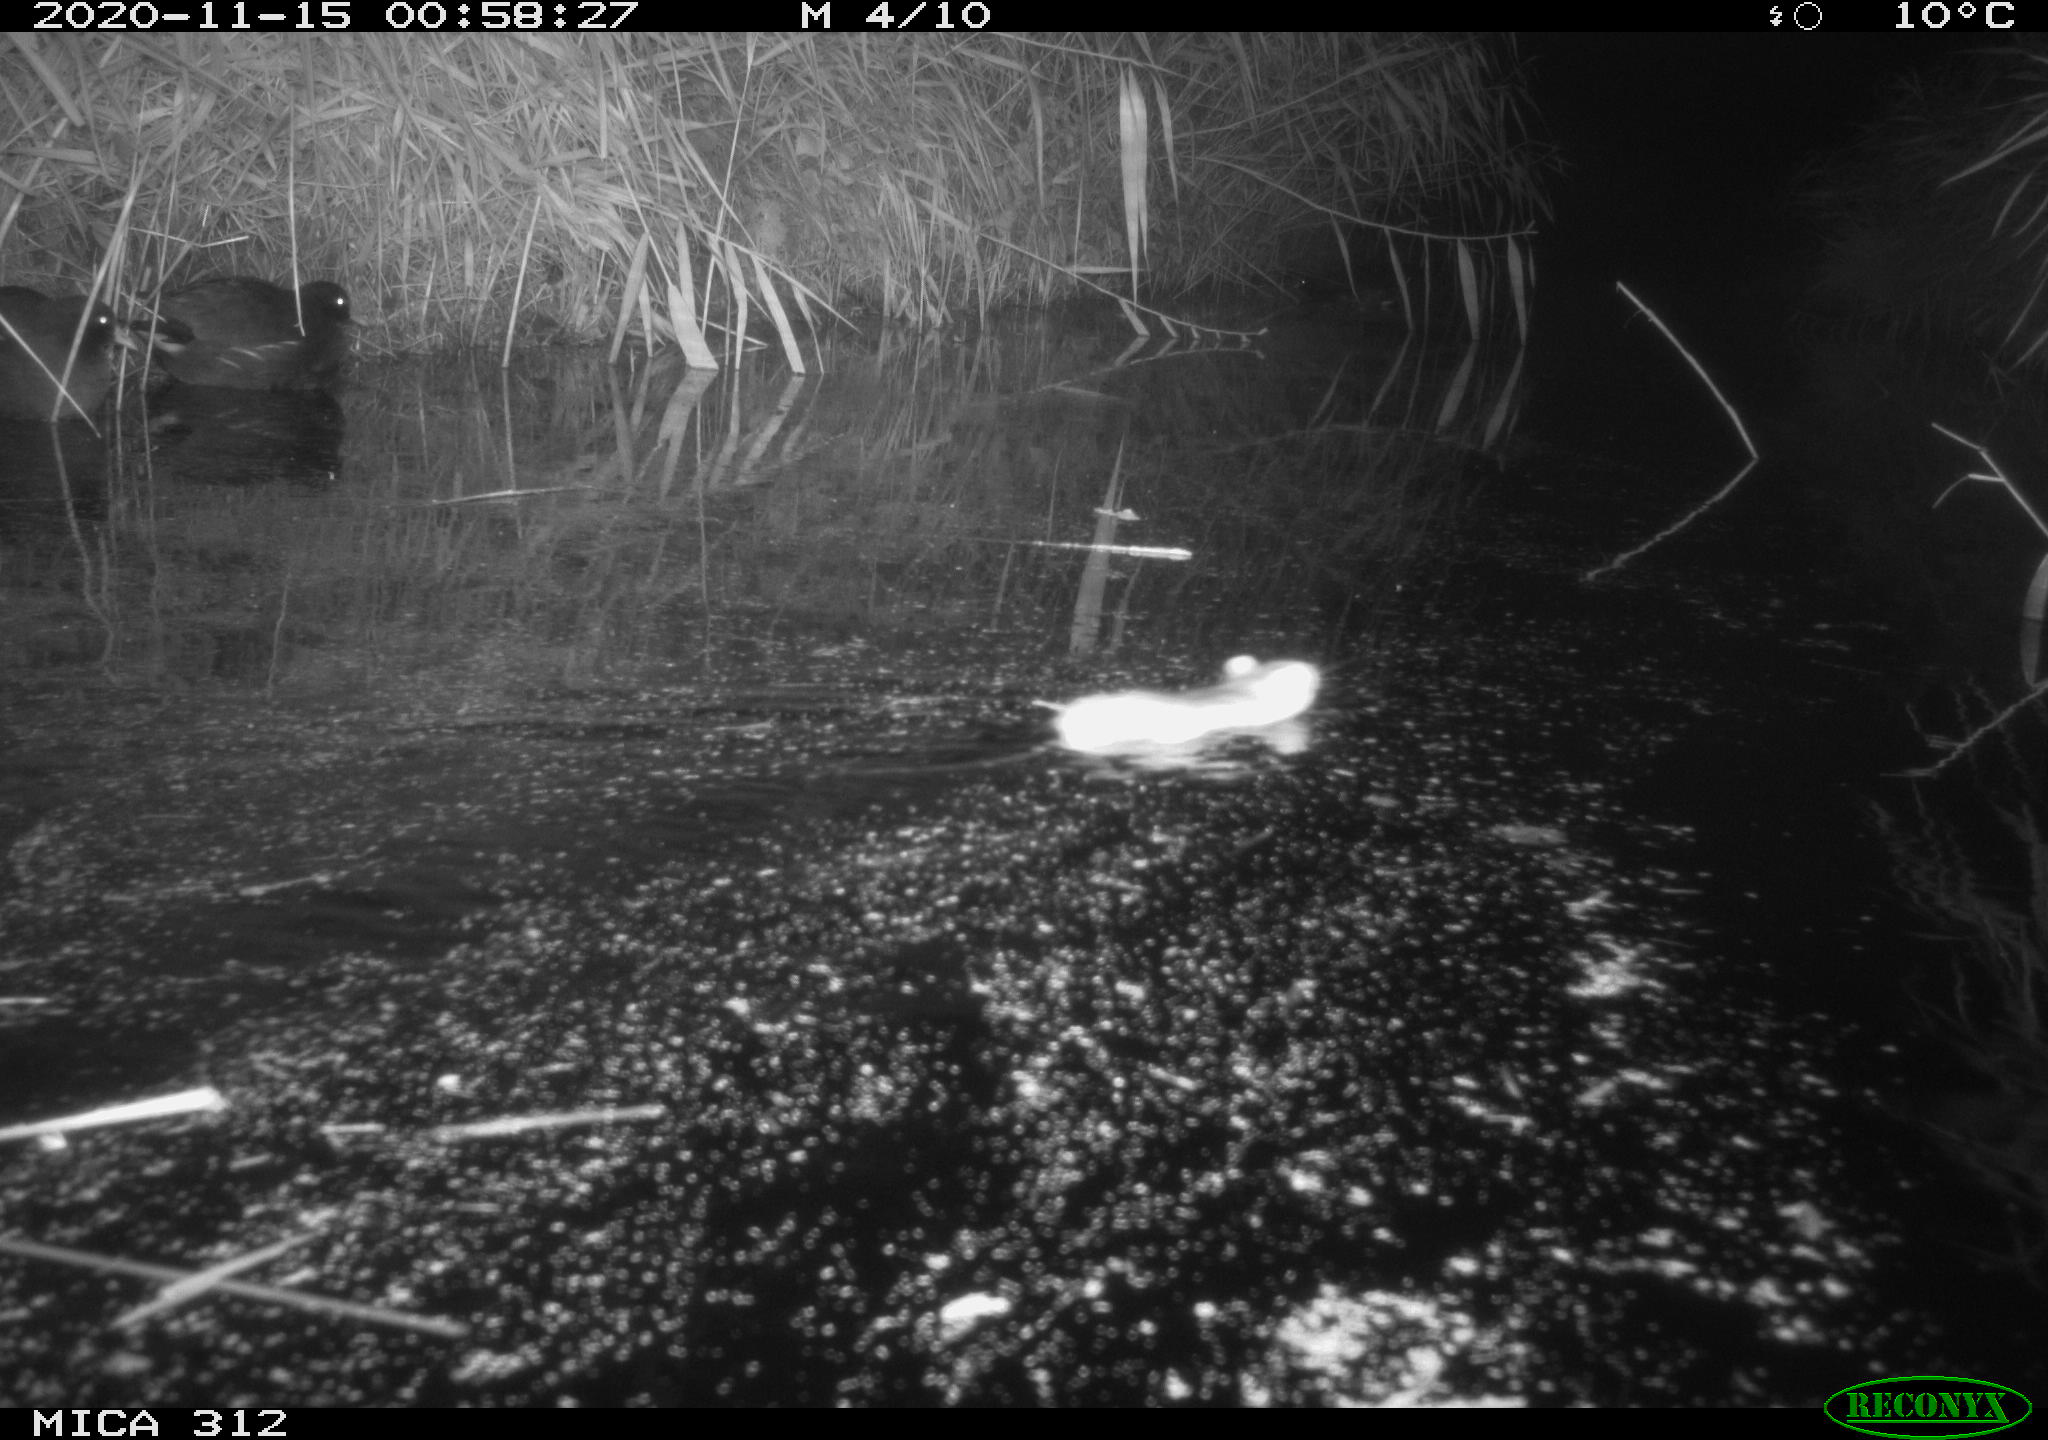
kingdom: Animalia
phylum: Chordata
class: Aves
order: Gruiformes
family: Rallidae
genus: Gallinula
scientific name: Gallinula chloropus
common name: Common moorhen
